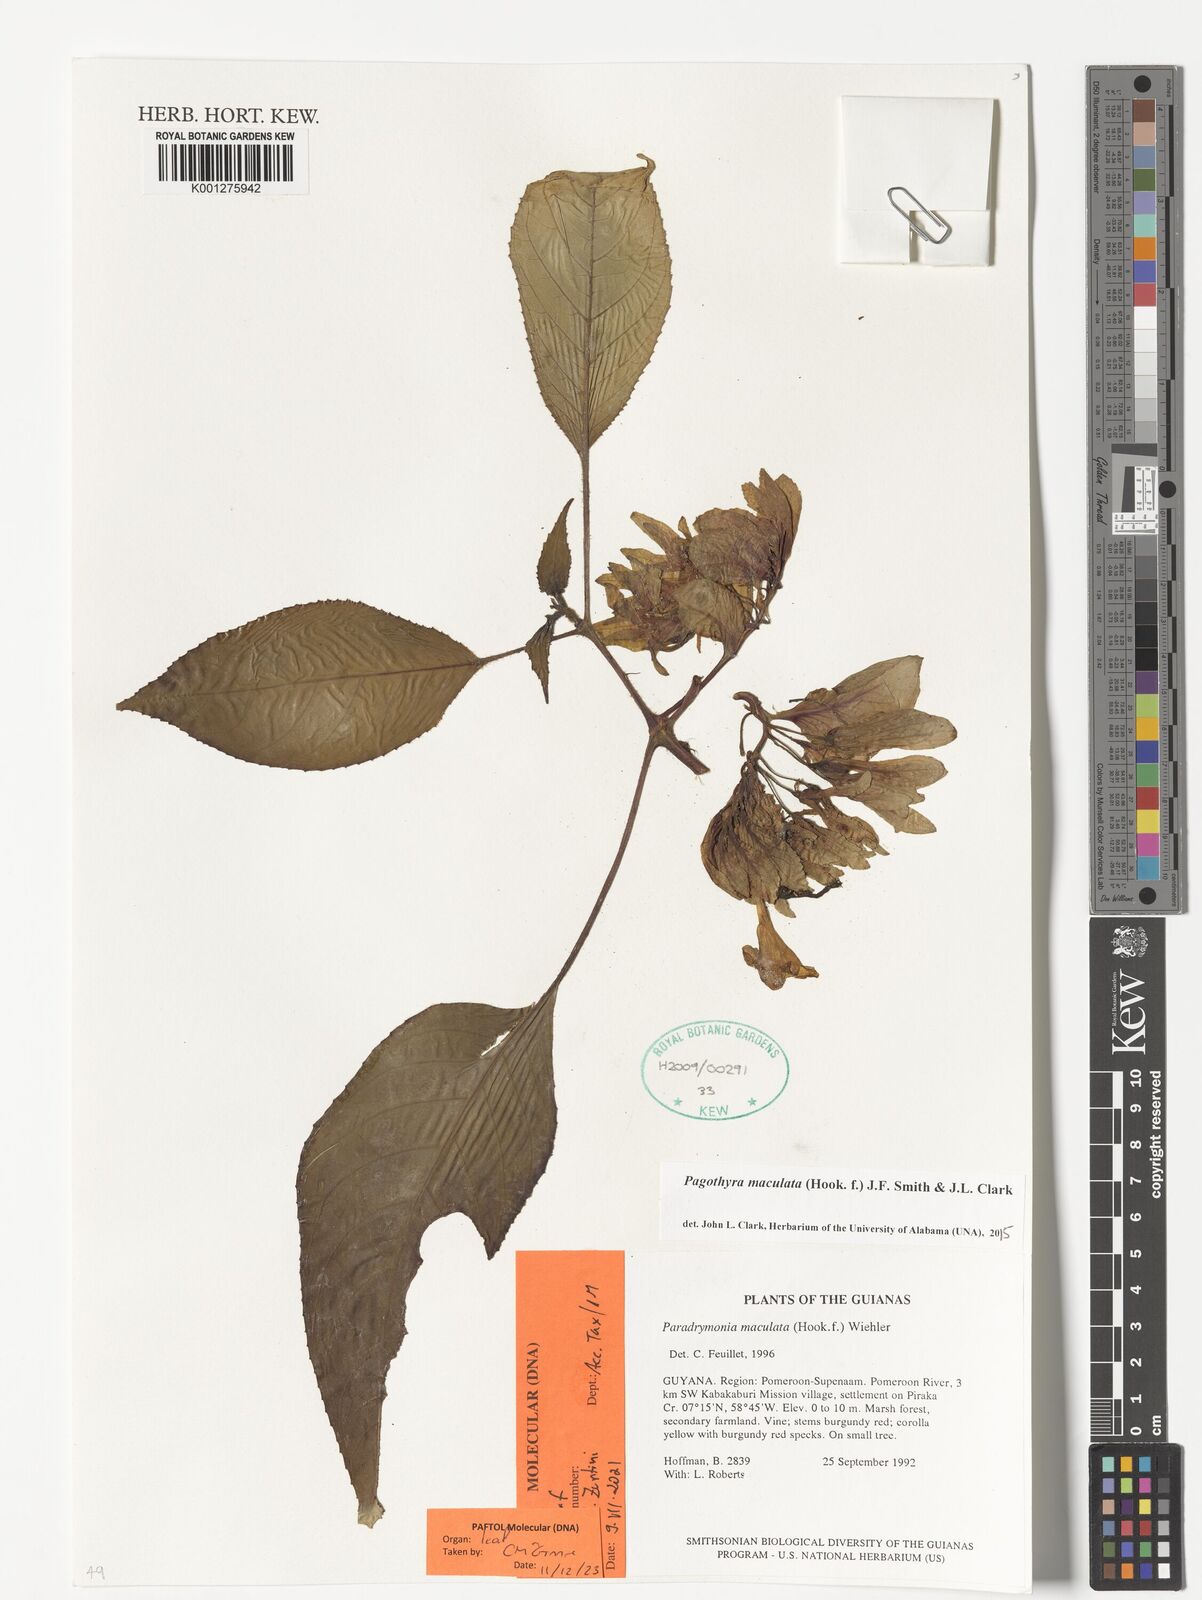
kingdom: Plantae
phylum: Tracheophyta
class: Magnoliopsida
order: Lamiales
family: Gesneriaceae
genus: Pagothyra
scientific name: Pagothyra maculata
